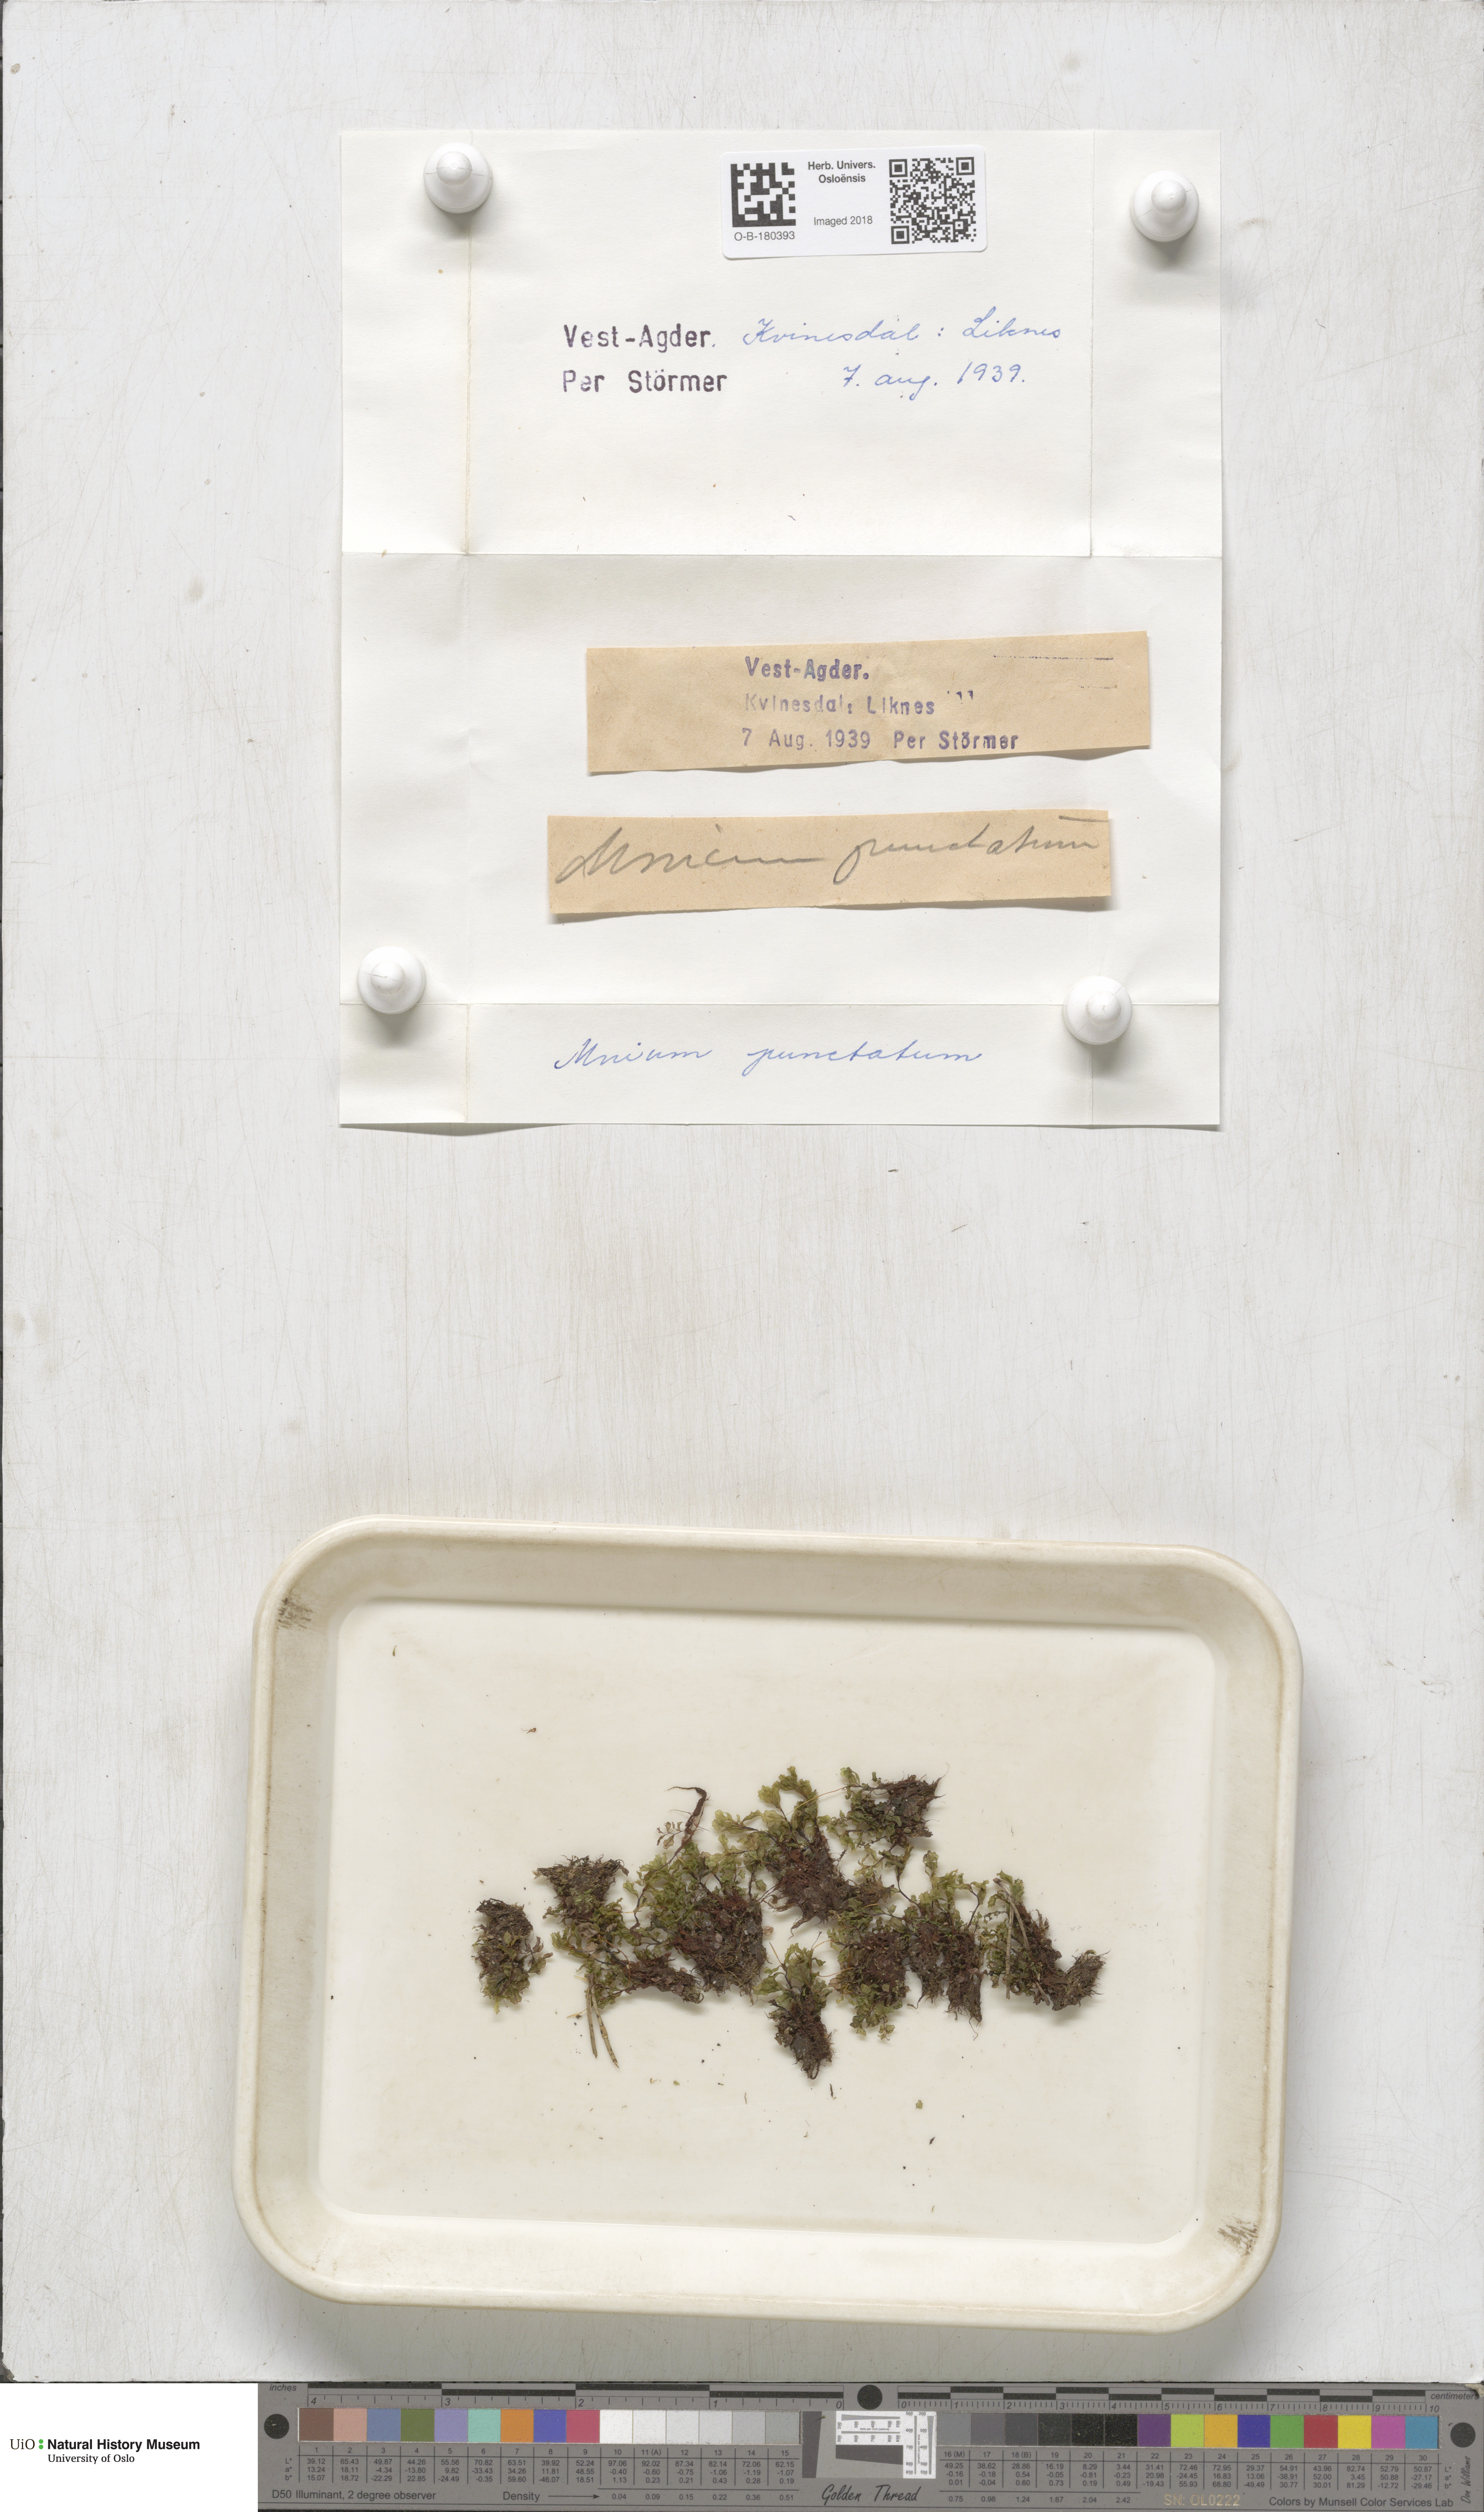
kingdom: Plantae
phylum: Bryophyta
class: Bryopsida
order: Bryales
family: Mniaceae
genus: Rhizomnium
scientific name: Rhizomnium punctatum
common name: Dotted leafy moss
